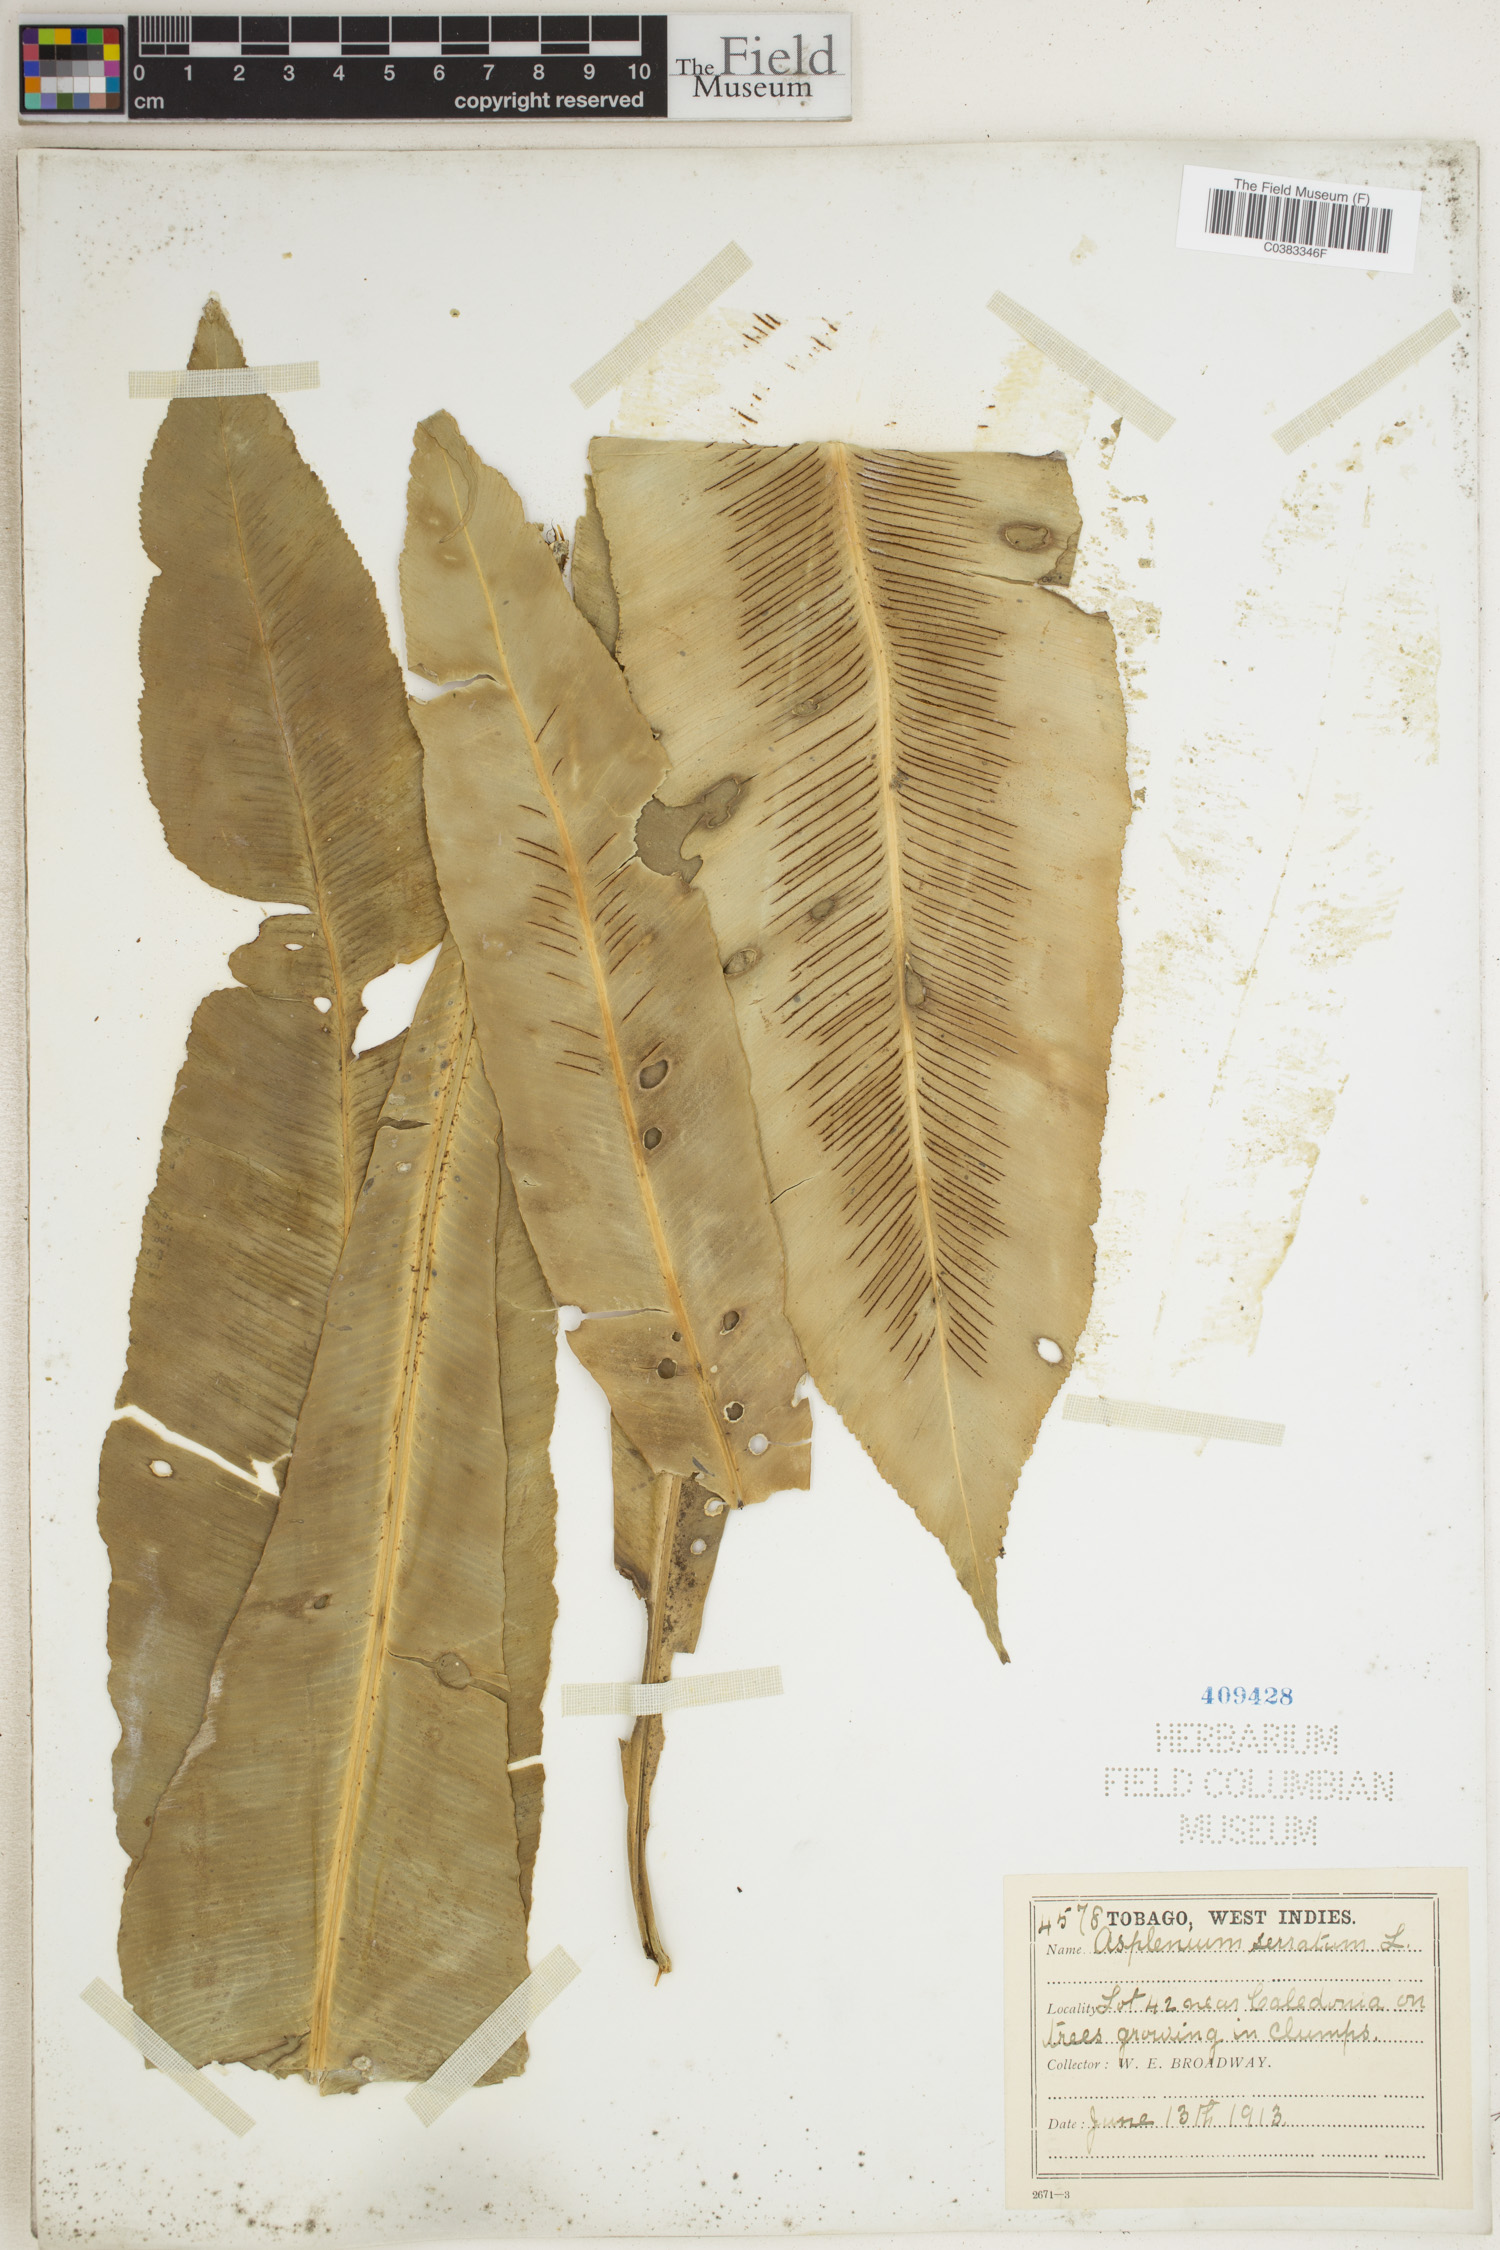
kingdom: Plantae
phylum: Tracheophyta
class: Polypodiopsida
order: Polypodiales
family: Aspleniaceae
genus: Asplenium
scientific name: Asplenium serratum
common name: Wild birdnest fern
